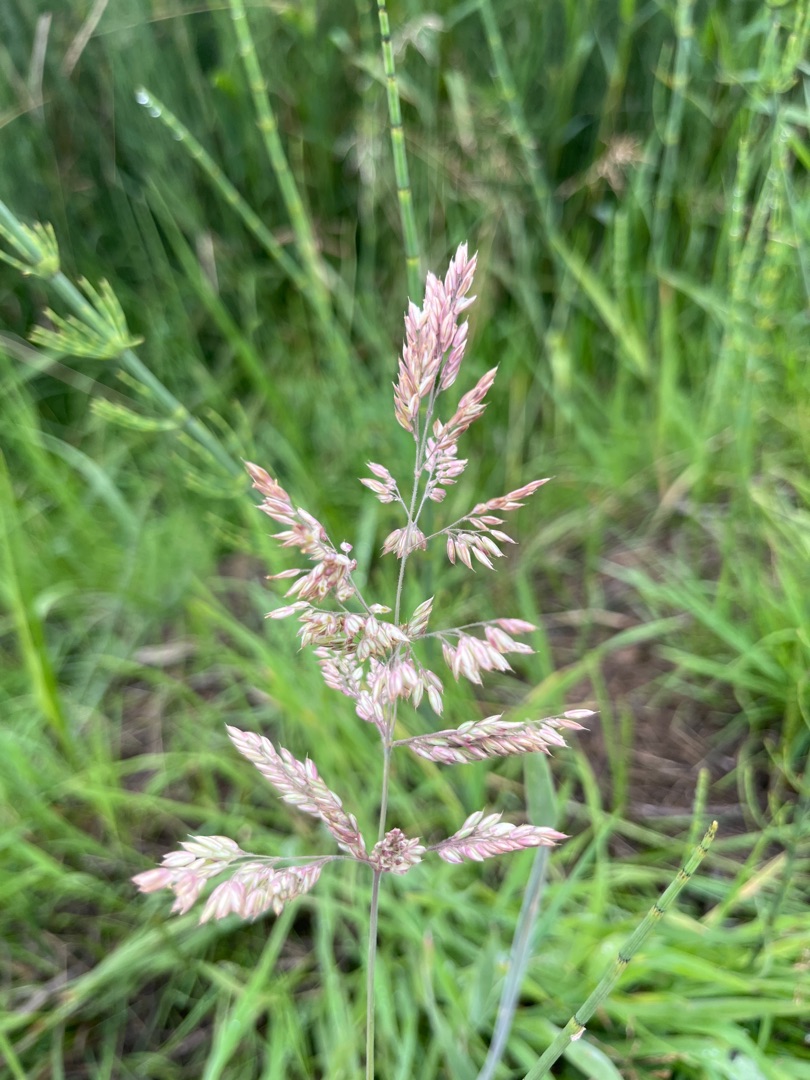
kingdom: Plantae
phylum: Tracheophyta
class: Liliopsida
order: Poales
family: Poaceae
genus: Holcus
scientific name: Holcus lanatus
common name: Fløjlsgræs
